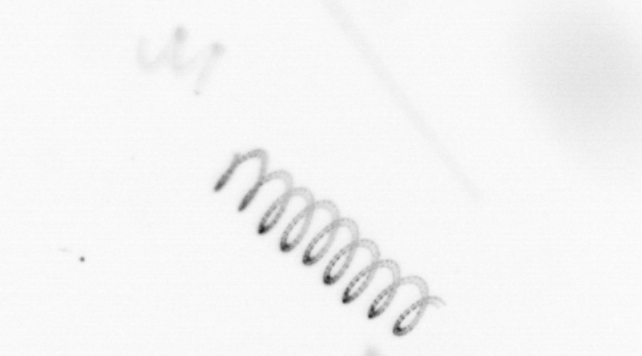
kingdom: Chromista
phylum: Ochrophyta
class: Bacillariophyceae
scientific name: Bacillariophyceae
